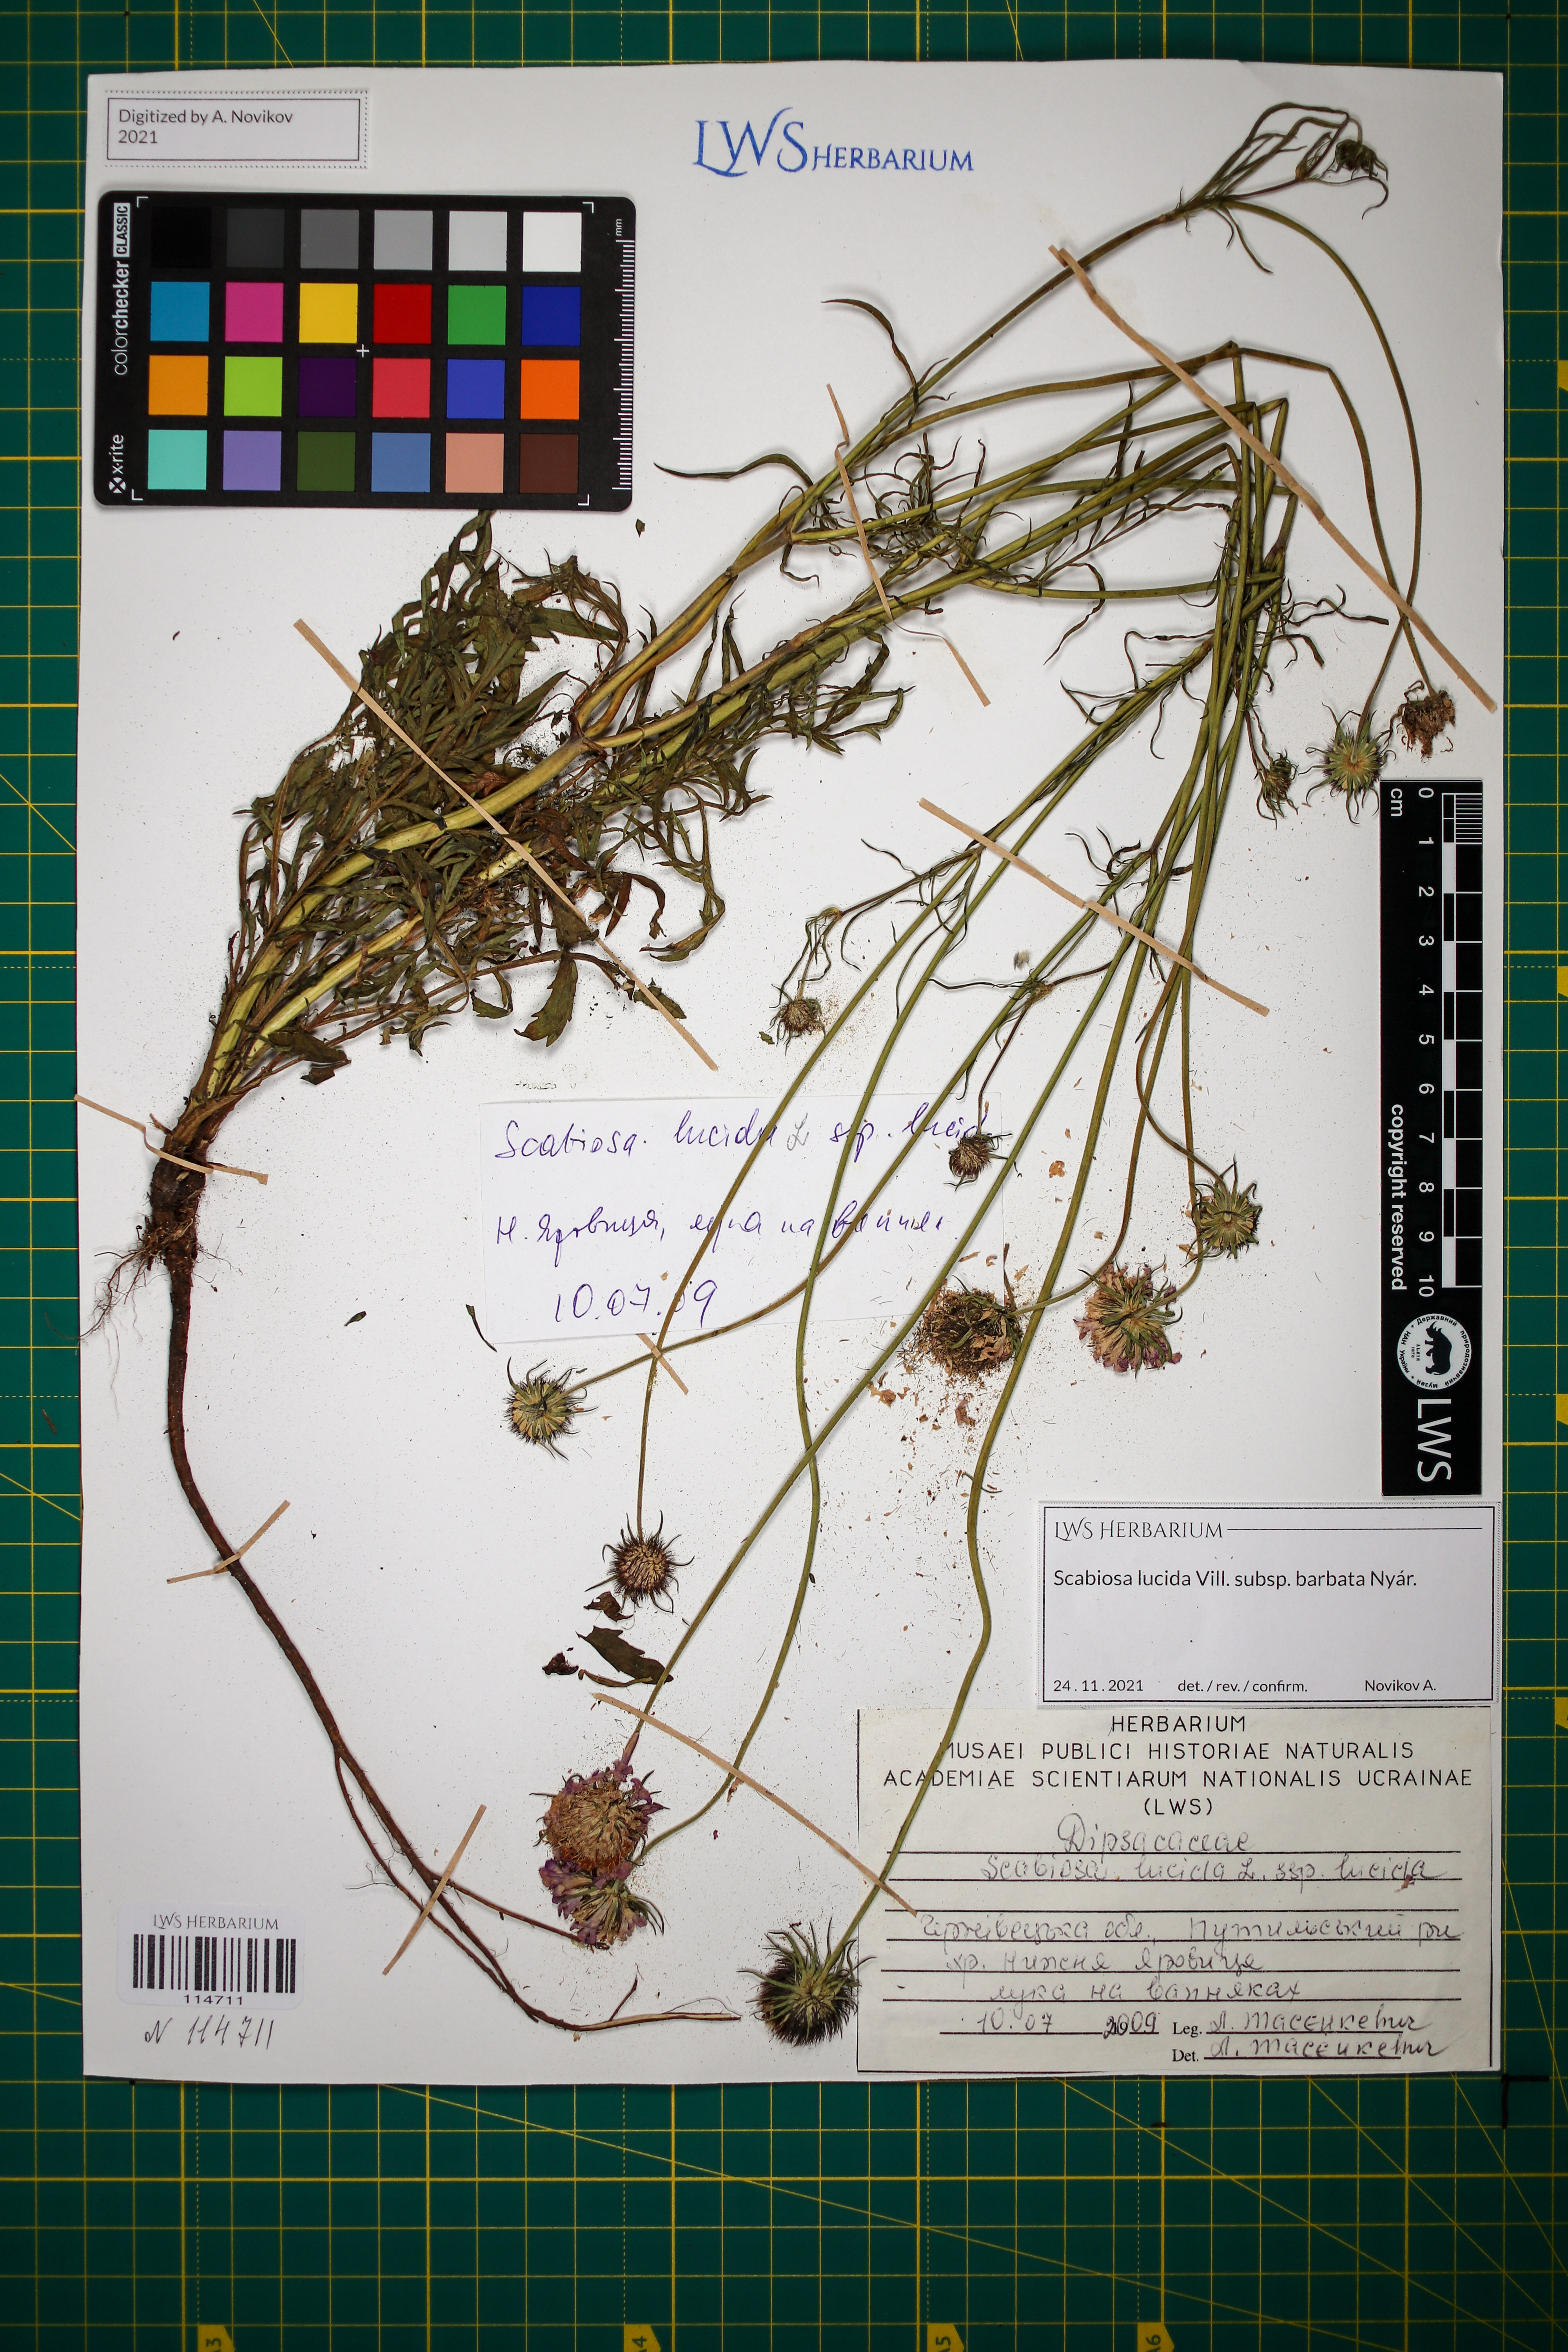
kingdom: Plantae
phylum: Tracheophyta
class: Magnoliopsida
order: Dipsacales
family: Caprifoliaceae
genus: Scabiosa
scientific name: Scabiosa lucida
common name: Shining scabious
